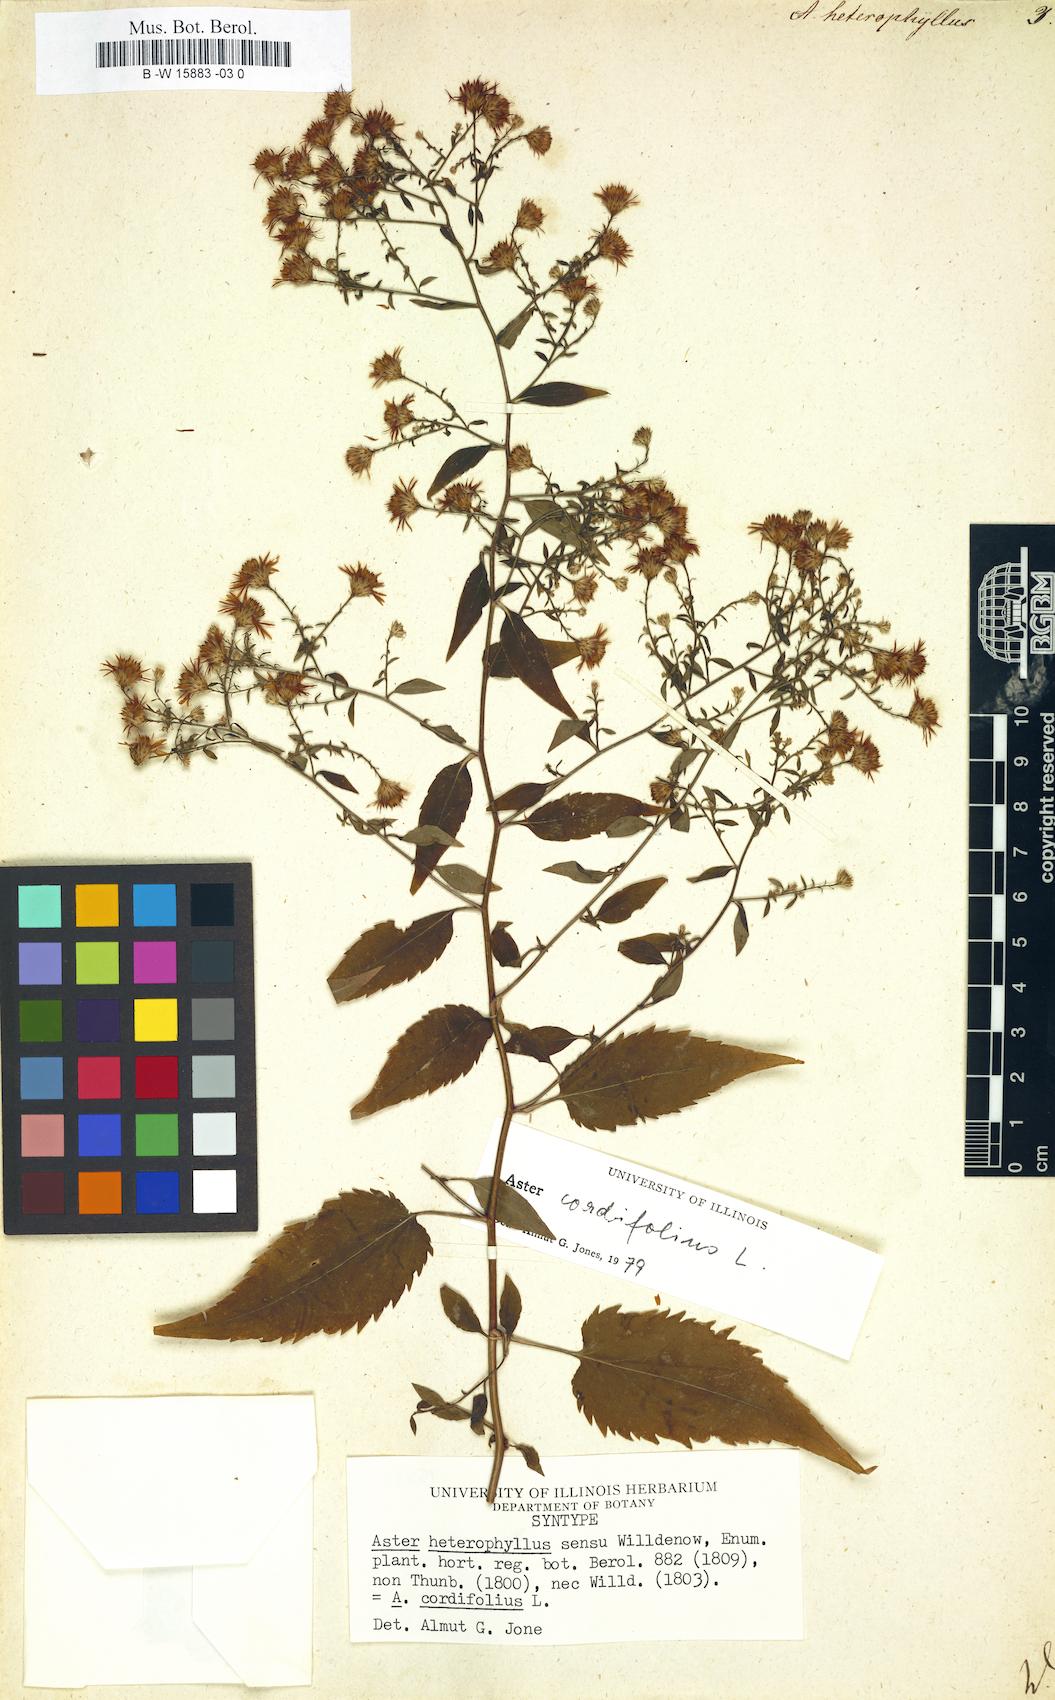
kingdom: Plantae
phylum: Tracheophyta
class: Magnoliopsida
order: Asterales
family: Asteraceae
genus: Athrixia
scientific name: Athrixia heterophylla
